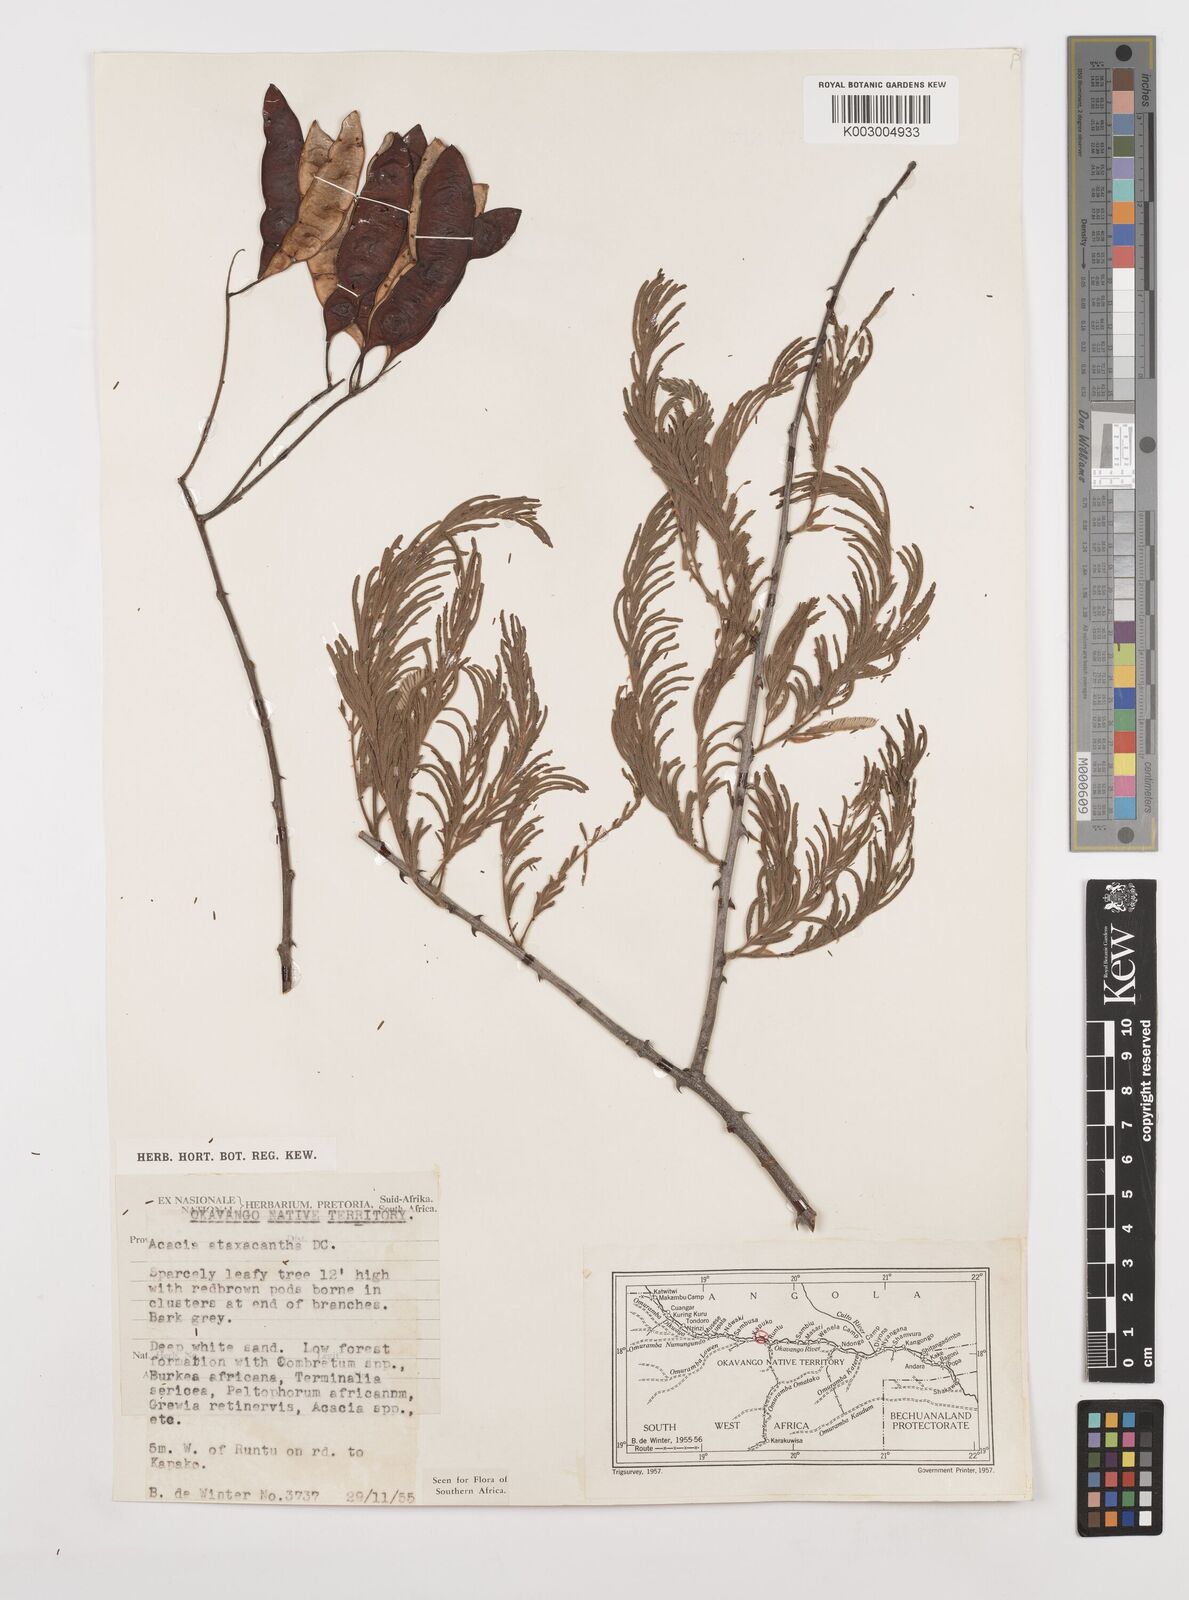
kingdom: Plantae
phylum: Tracheophyta
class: Magnoliopsida
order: Fabales
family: Fabaceae
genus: Senegalia
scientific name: Senegalia ataxacantha
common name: Flame acacia
